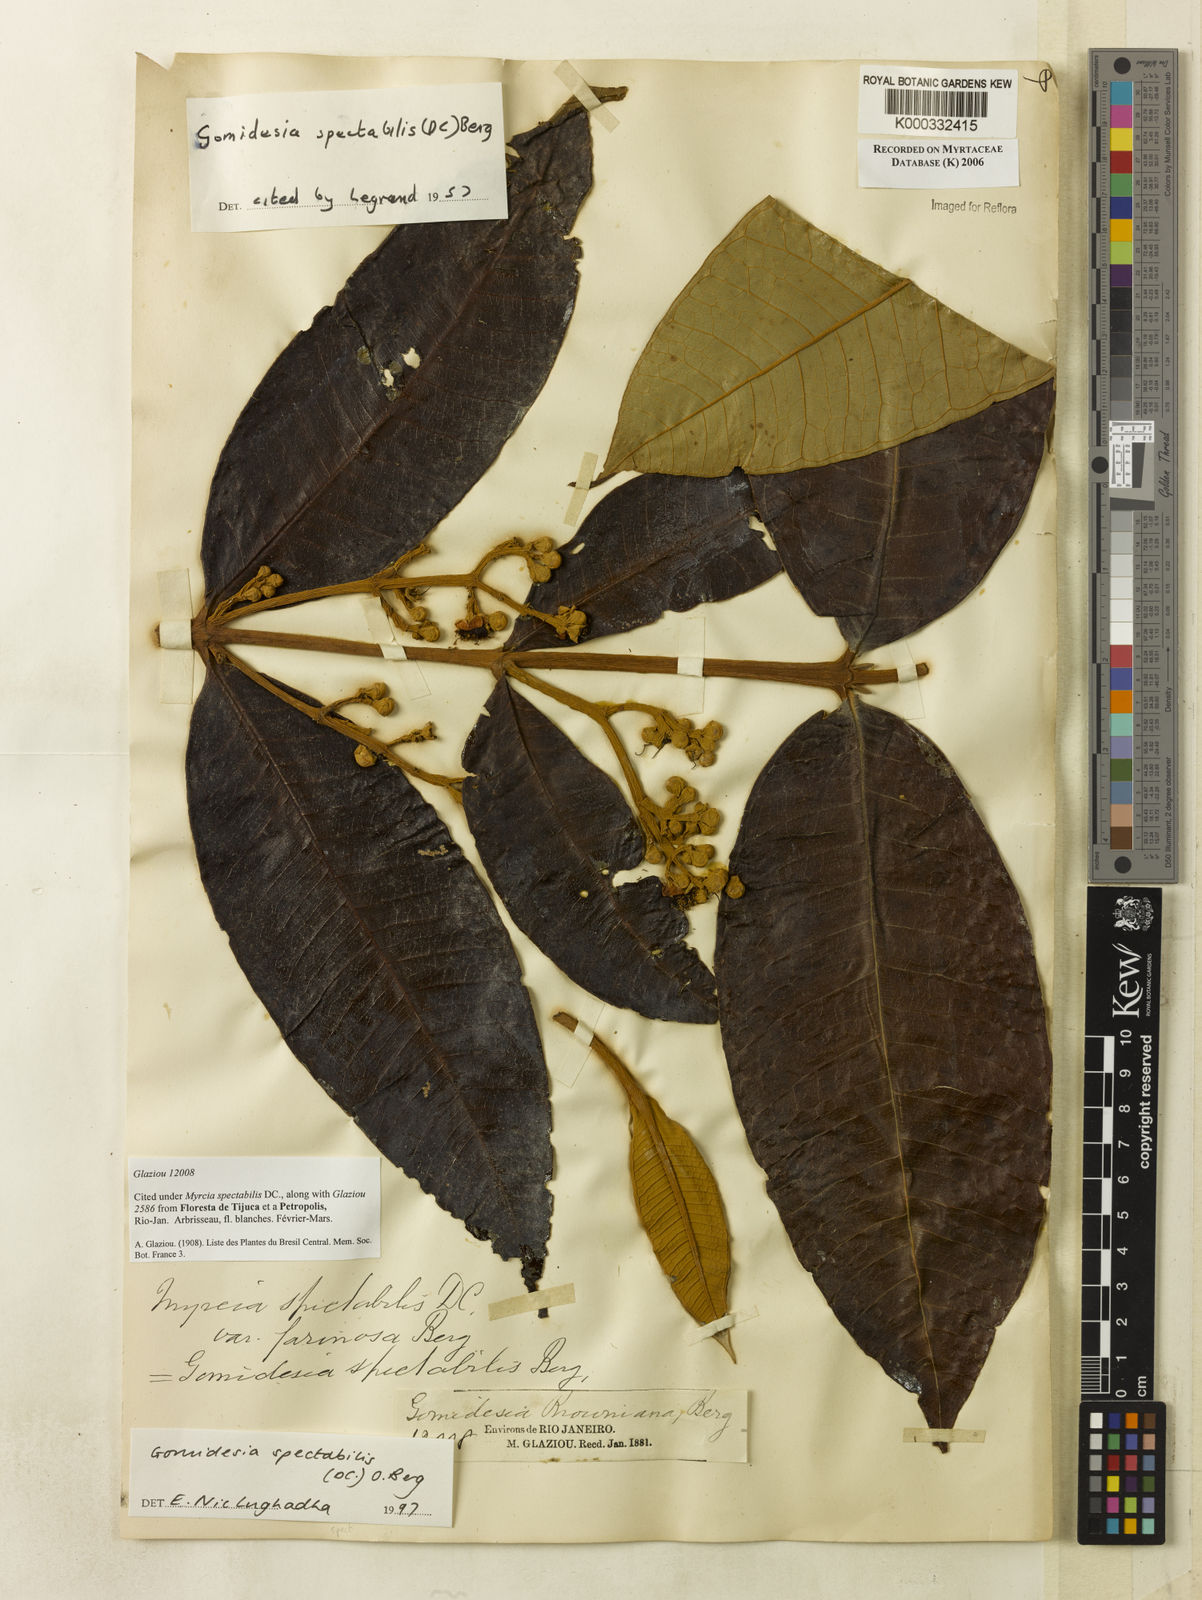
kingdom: Plantae
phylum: Tracheophyta
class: Magnoliopsida
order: Myrtales
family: Myrtaceae
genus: Myrcia
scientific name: Myrcia spectabilis
